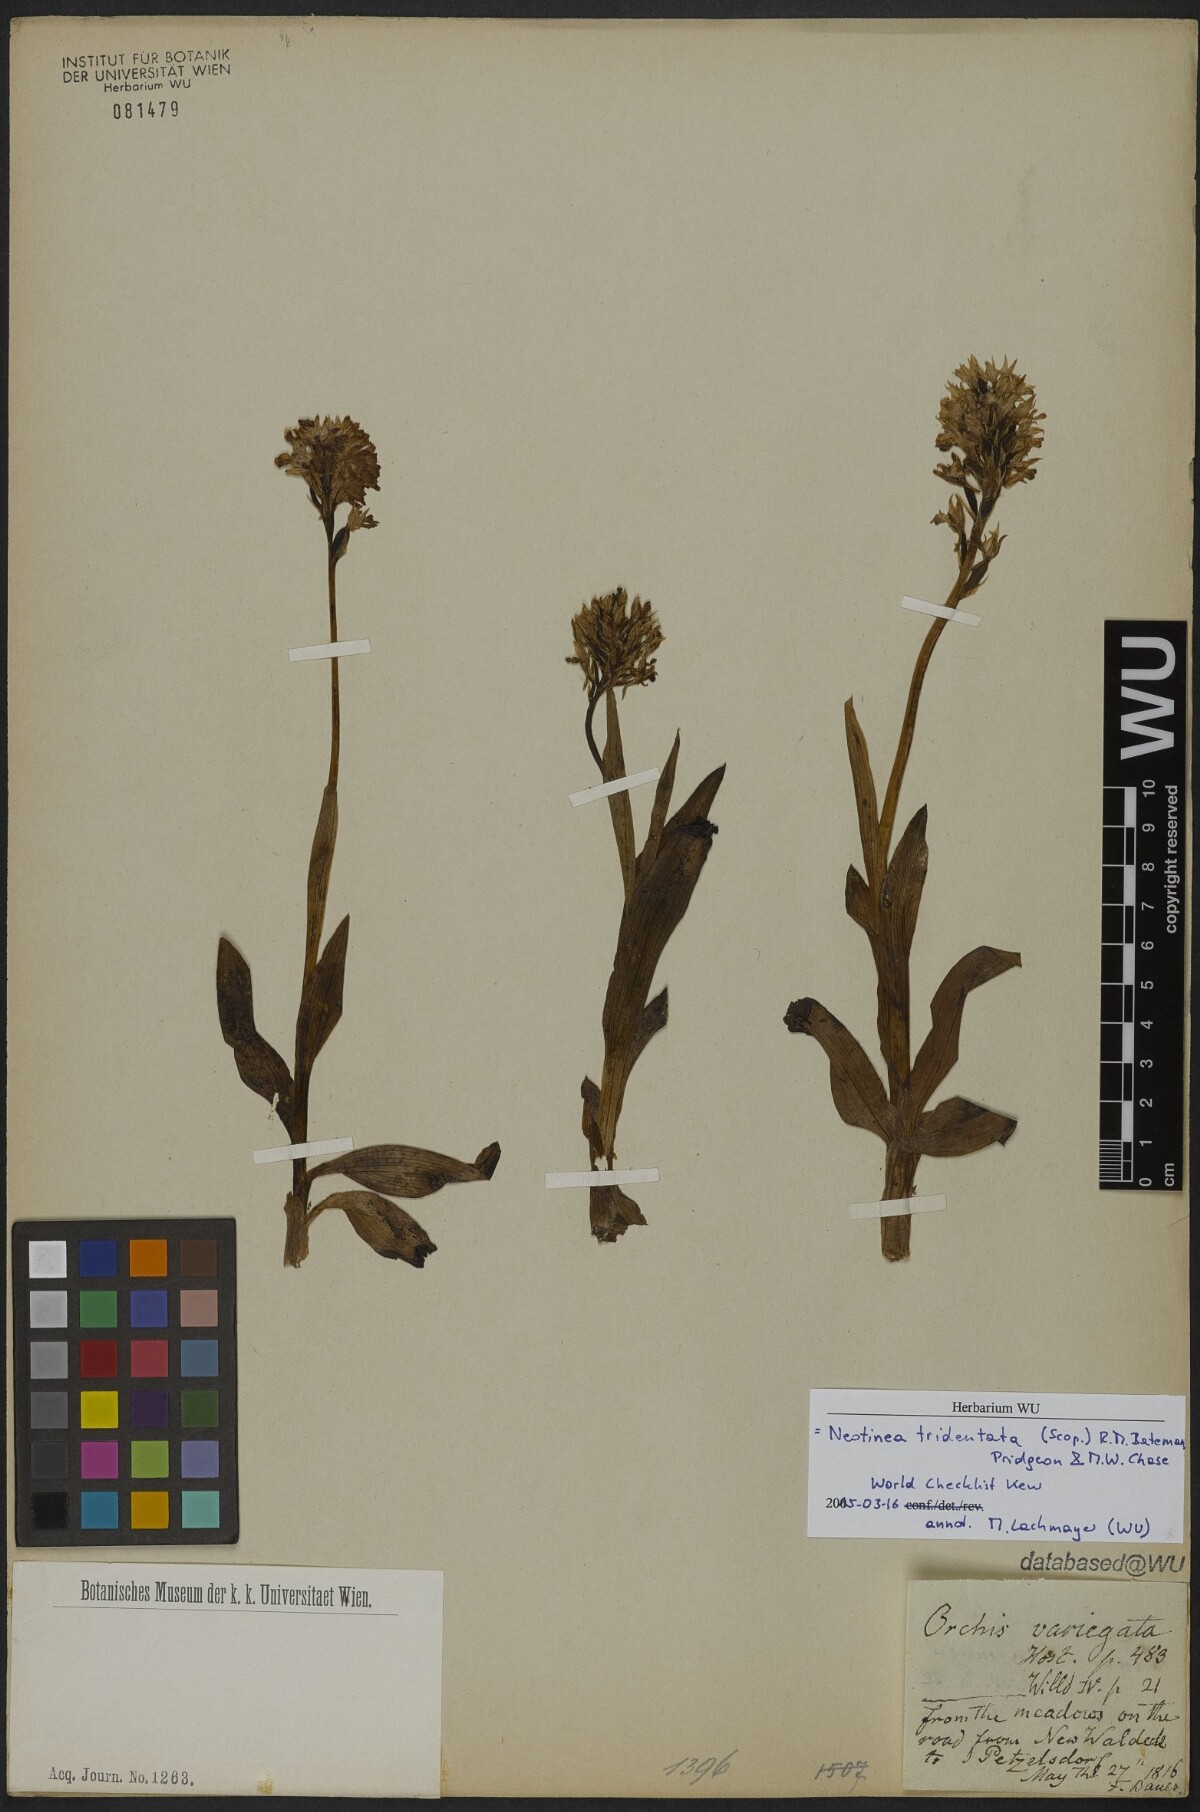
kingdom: Plantae
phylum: Tracheophyta
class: Liliopsida
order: Asparagales
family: Orchidaceae
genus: Neotinea
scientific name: Neotinea tridentata
